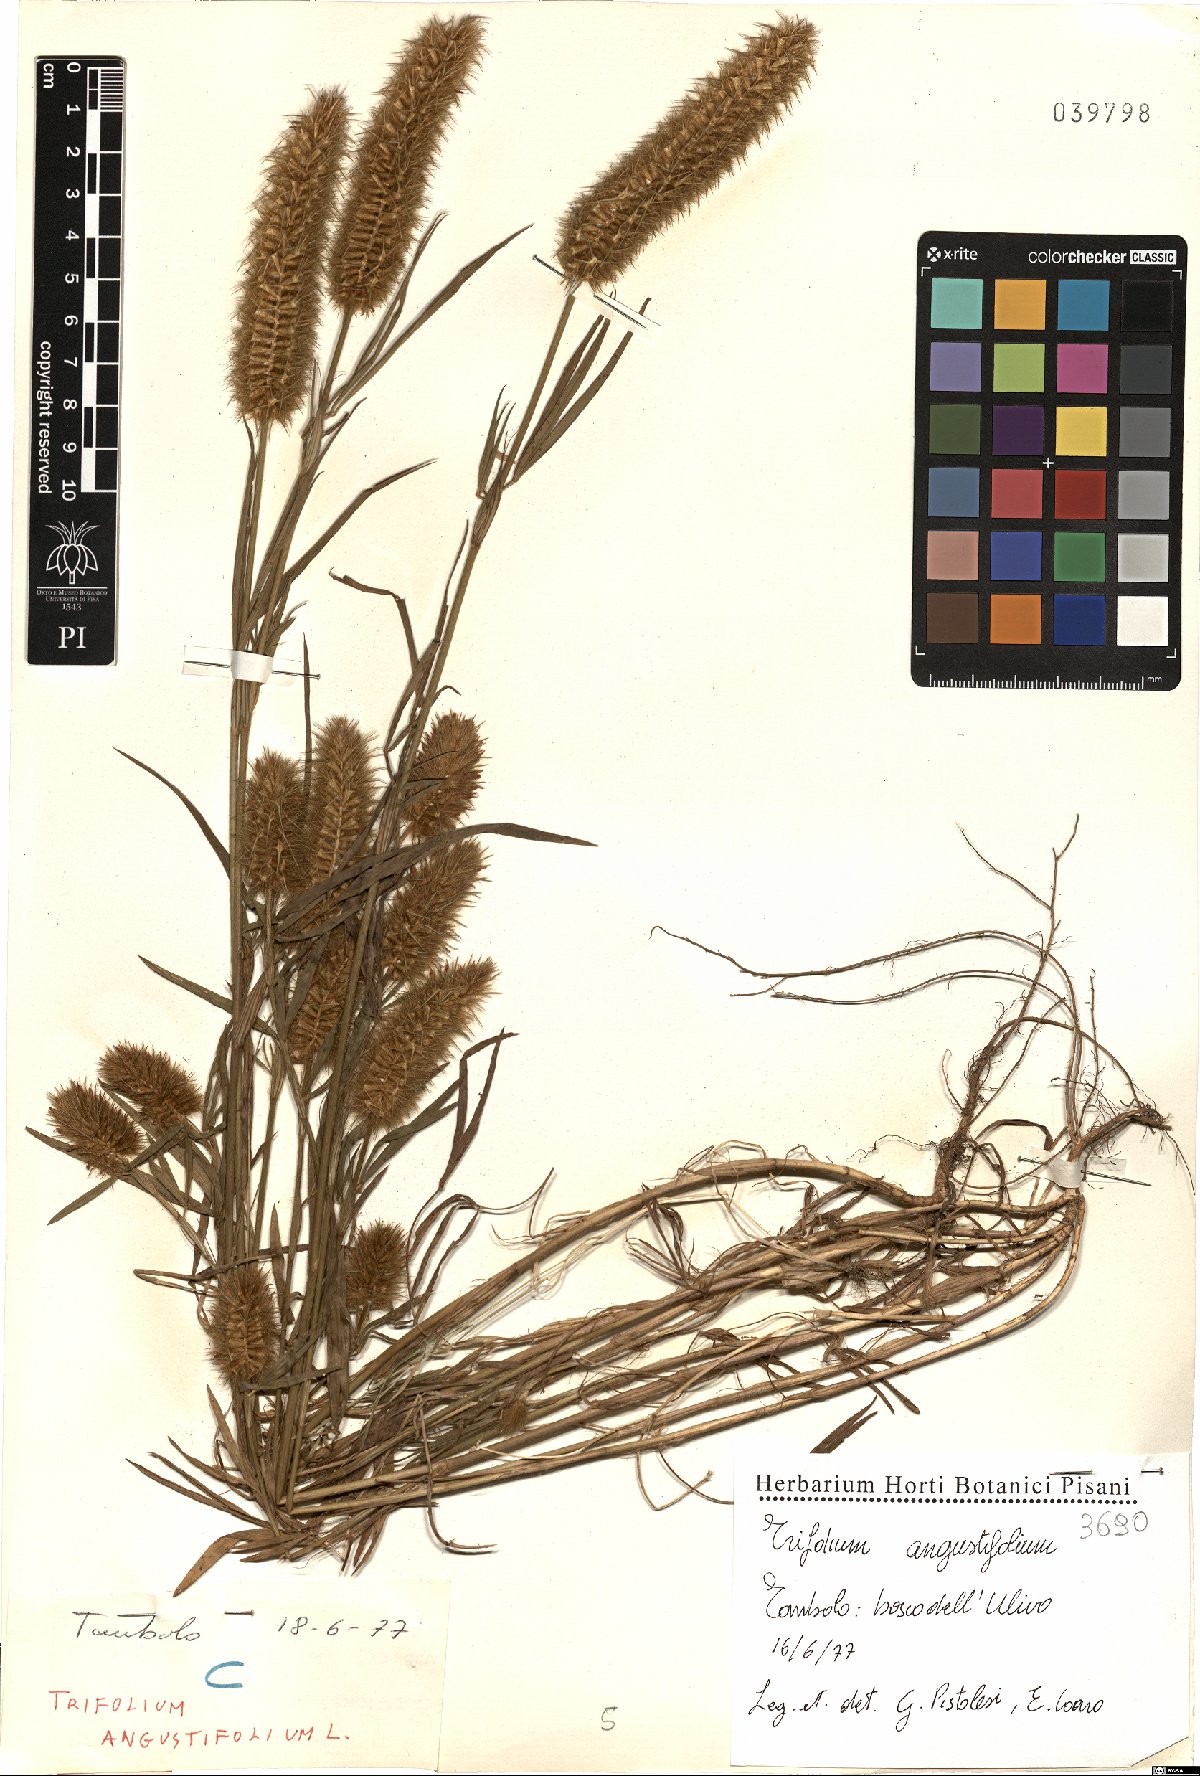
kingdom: Plantae
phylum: Tracheophyta
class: Magnoliopsida
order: Fabales
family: Fabaceae
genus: Trifolium
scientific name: Trifolium angustifolium
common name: Narrow clover
